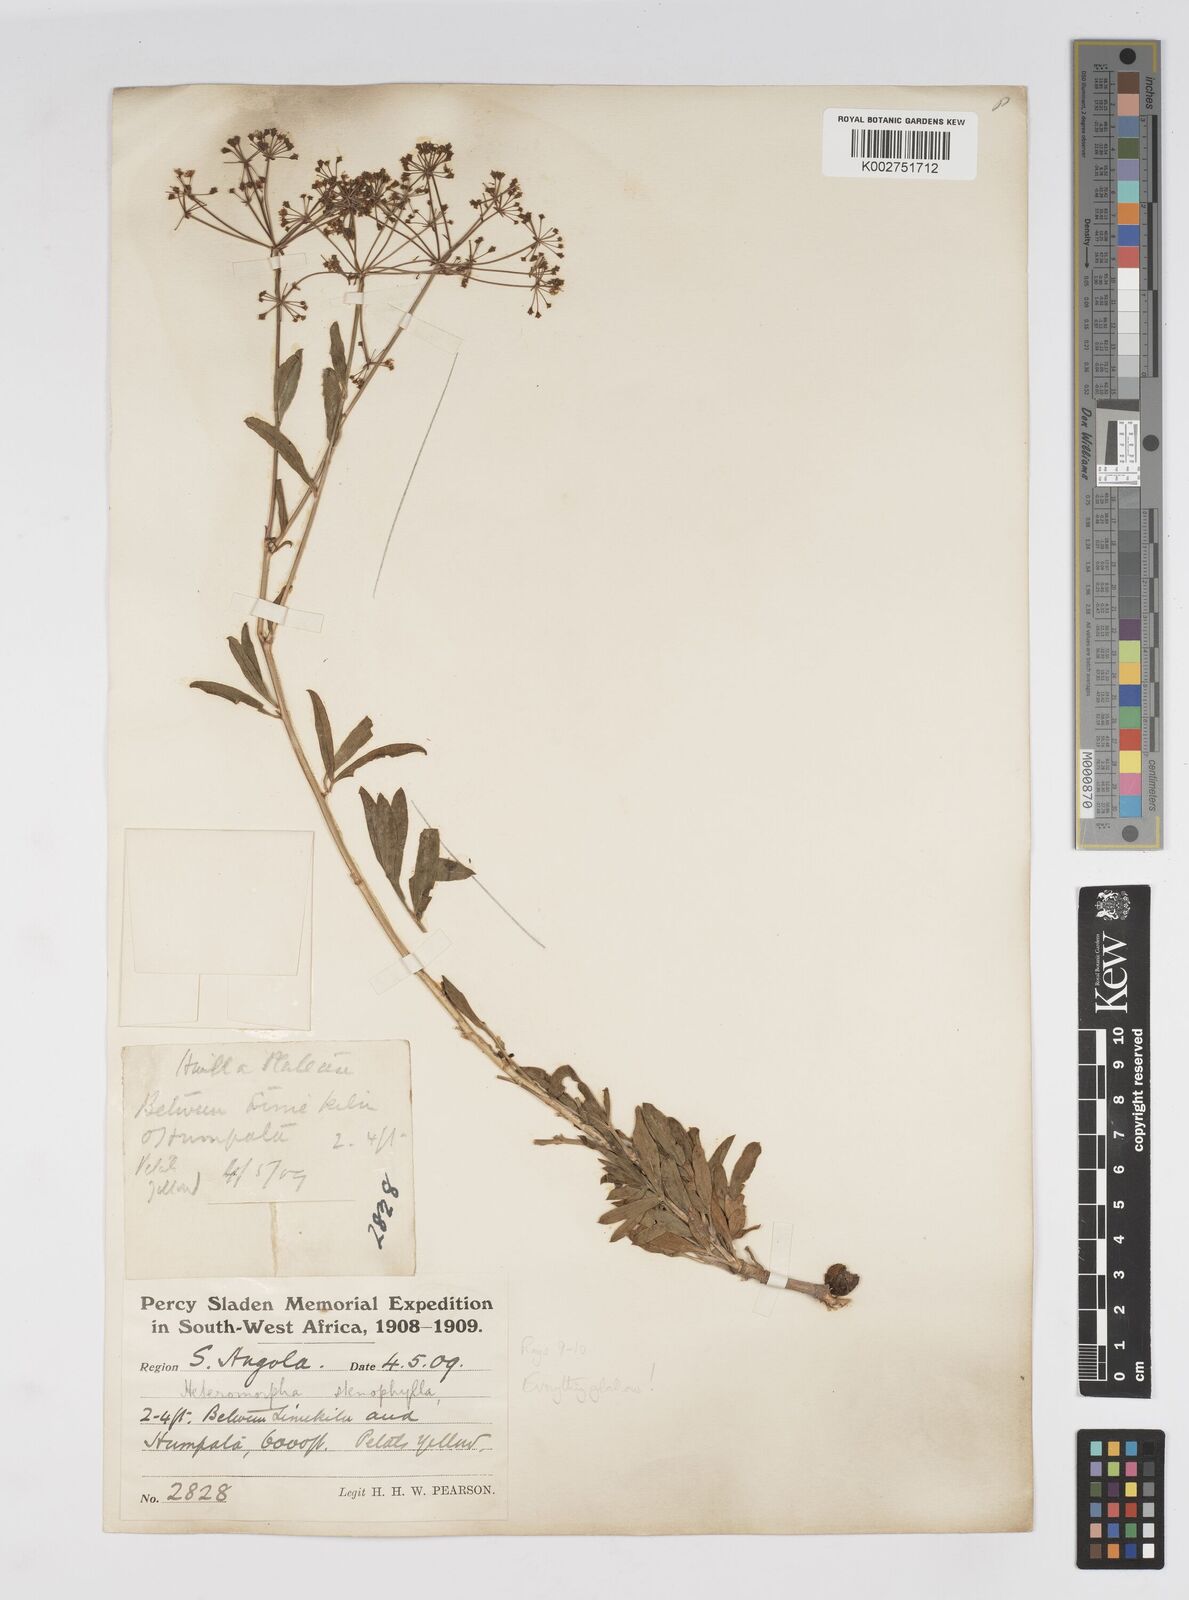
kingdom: Plantae
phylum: Tracheophyta
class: Magnoliopsida
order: Apiales
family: Apiaceae
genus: Heteromorpha
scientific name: Heteromorpha gossweileri
